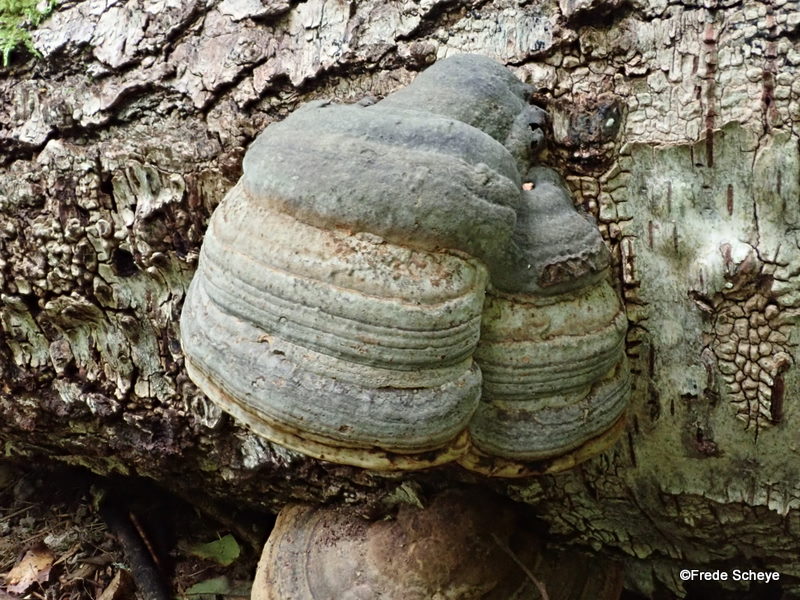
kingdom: Fungi
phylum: Basidiomycota
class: Agaricomycetes
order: Polyporales
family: Polyporaceae
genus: Fomes
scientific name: Fomes fomentarius
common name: tøndersvamp
